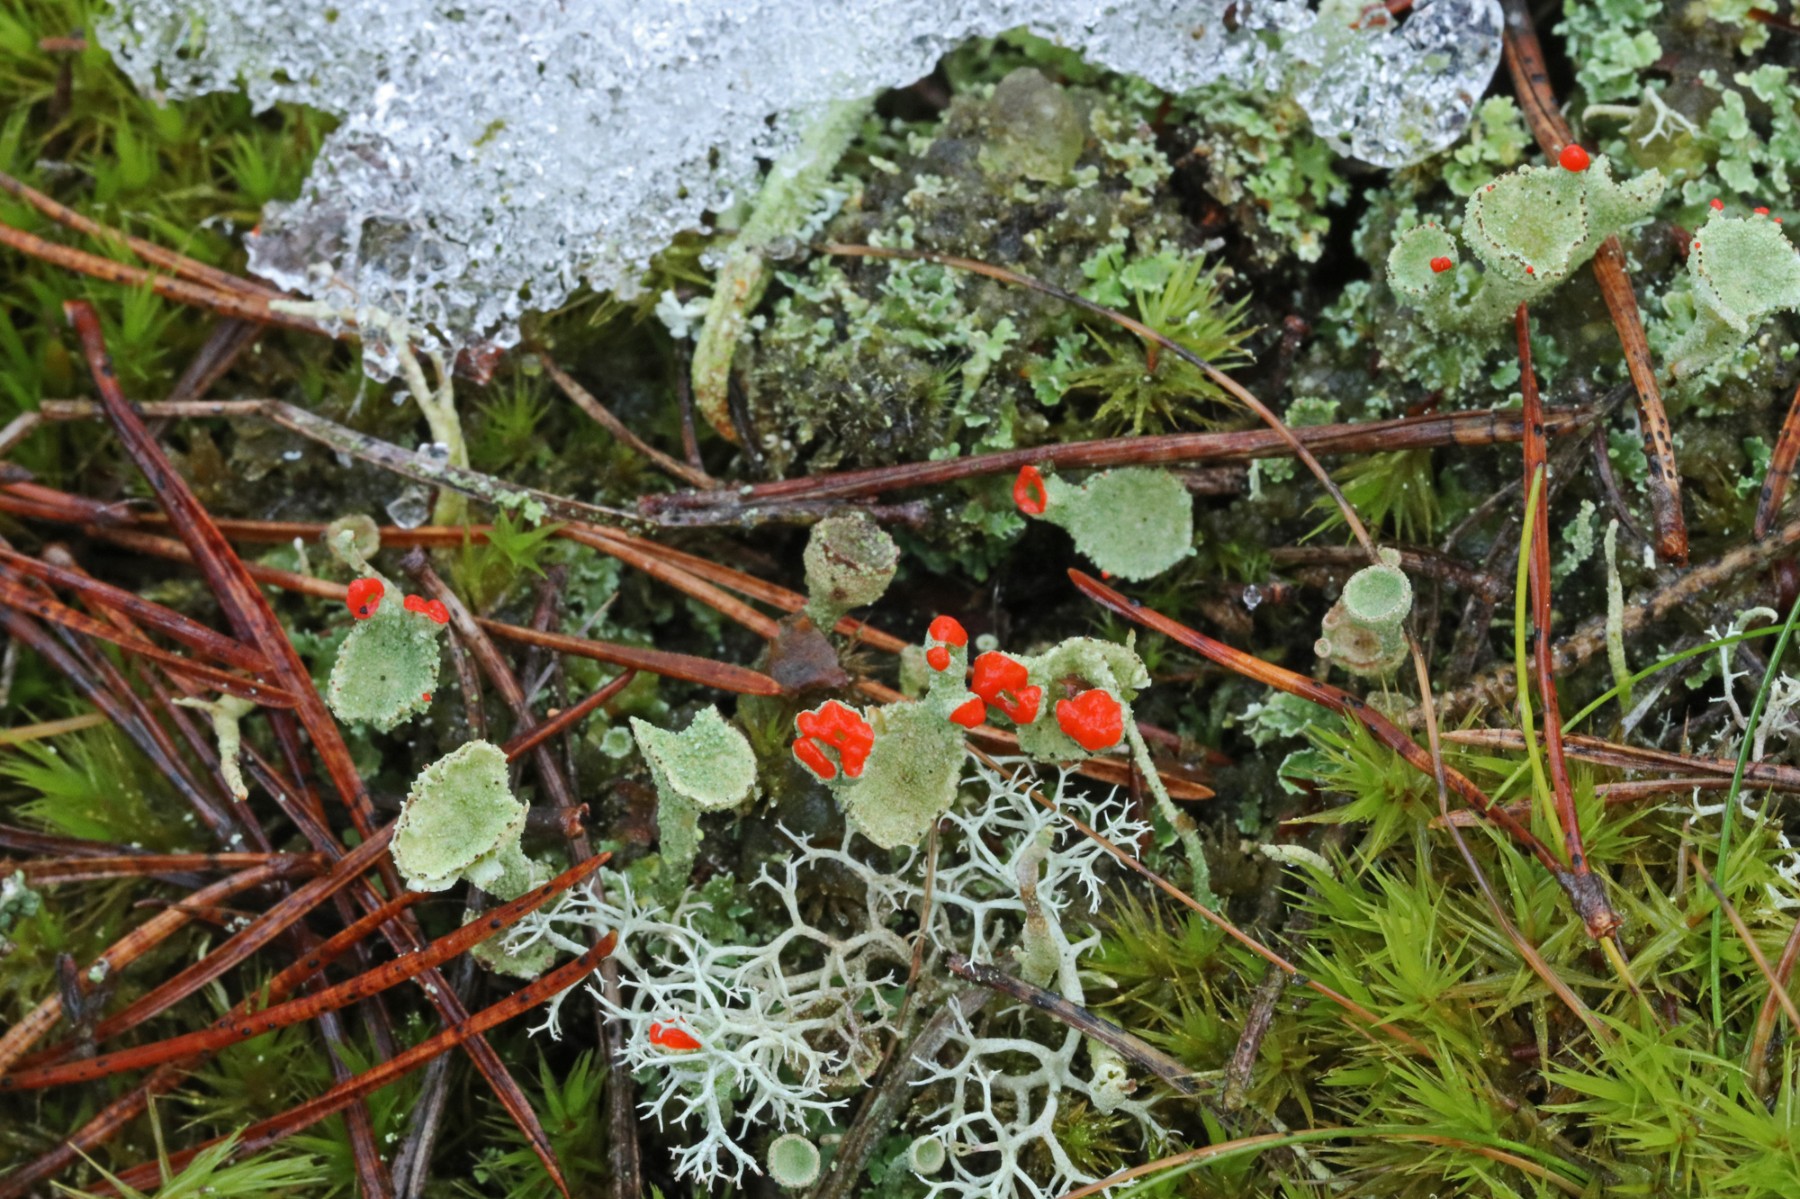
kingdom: Fungi
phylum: Ascomycota
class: Lecanoromycetes
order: Lecanorales
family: Cladoniaceae
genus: Cladonia
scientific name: Cladonia diversa
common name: rød bægerlav
